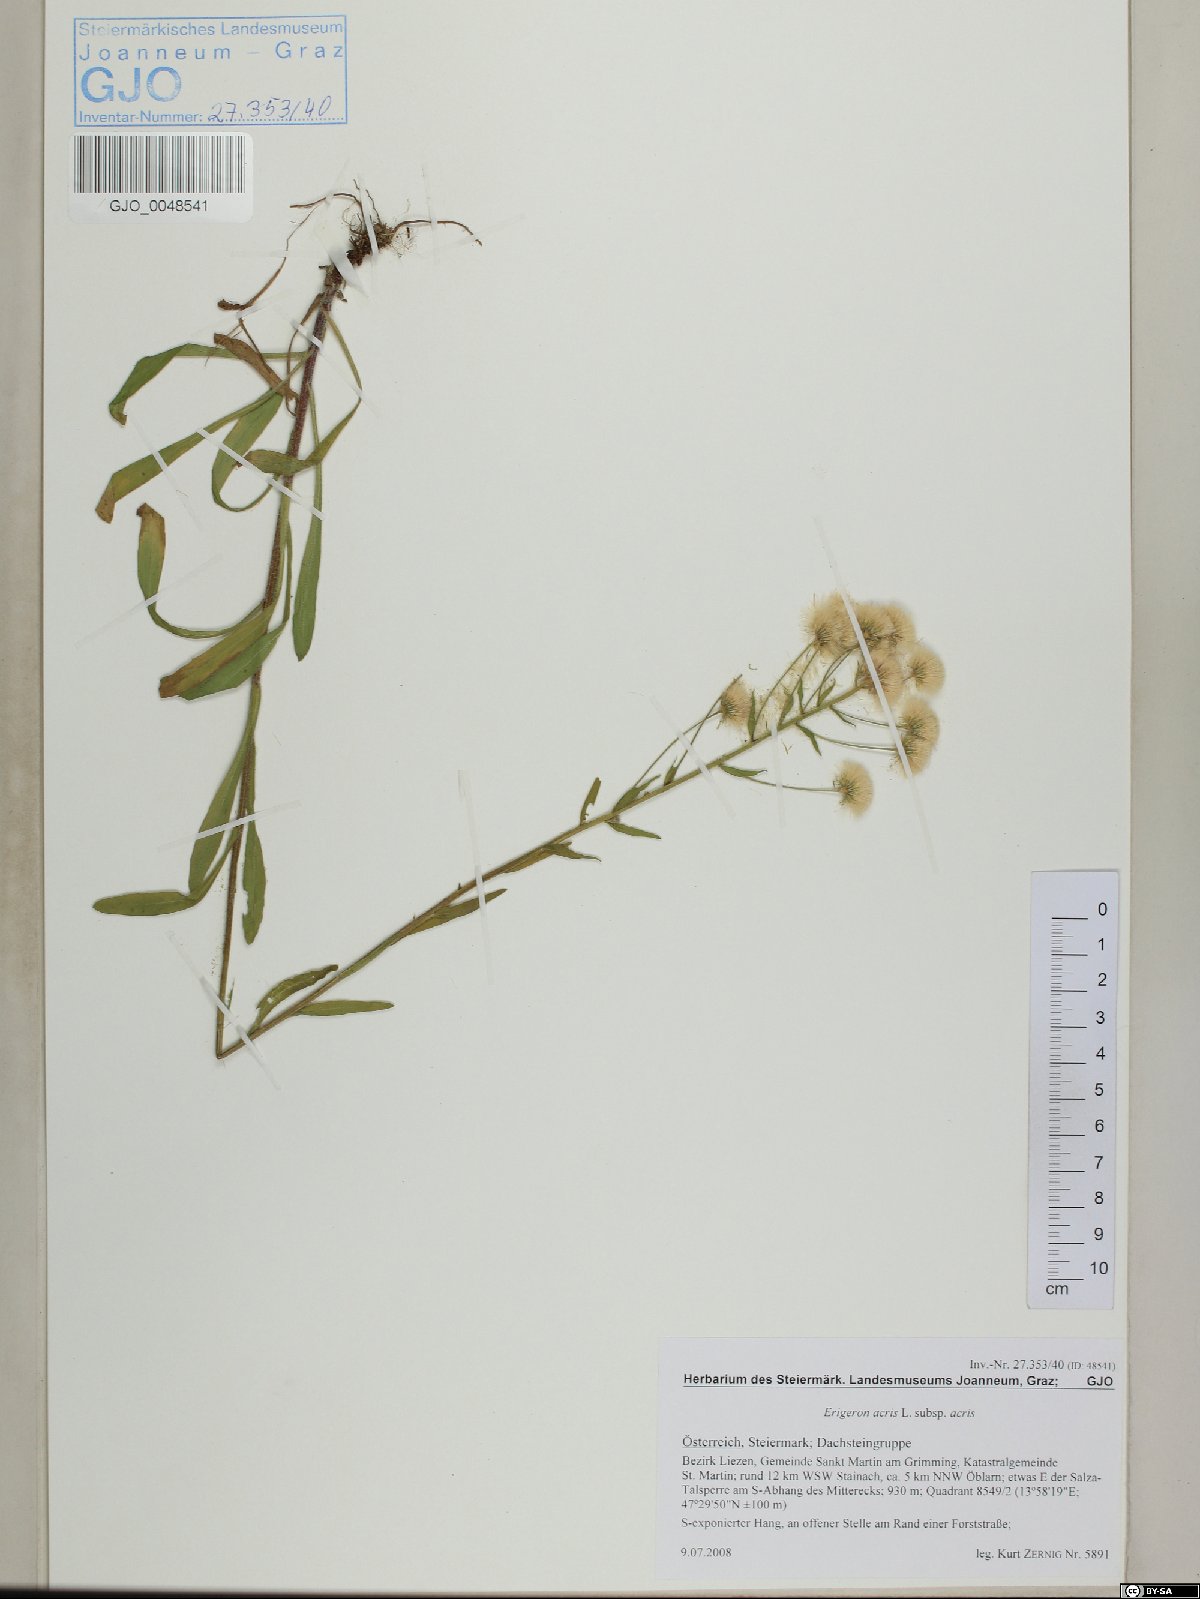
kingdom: Plantae
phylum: Tracheophyta
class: Magnoliopsida
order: Asterales
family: Asteraceae
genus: Erigeron
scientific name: Erigeron acris
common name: Blue fleabane
